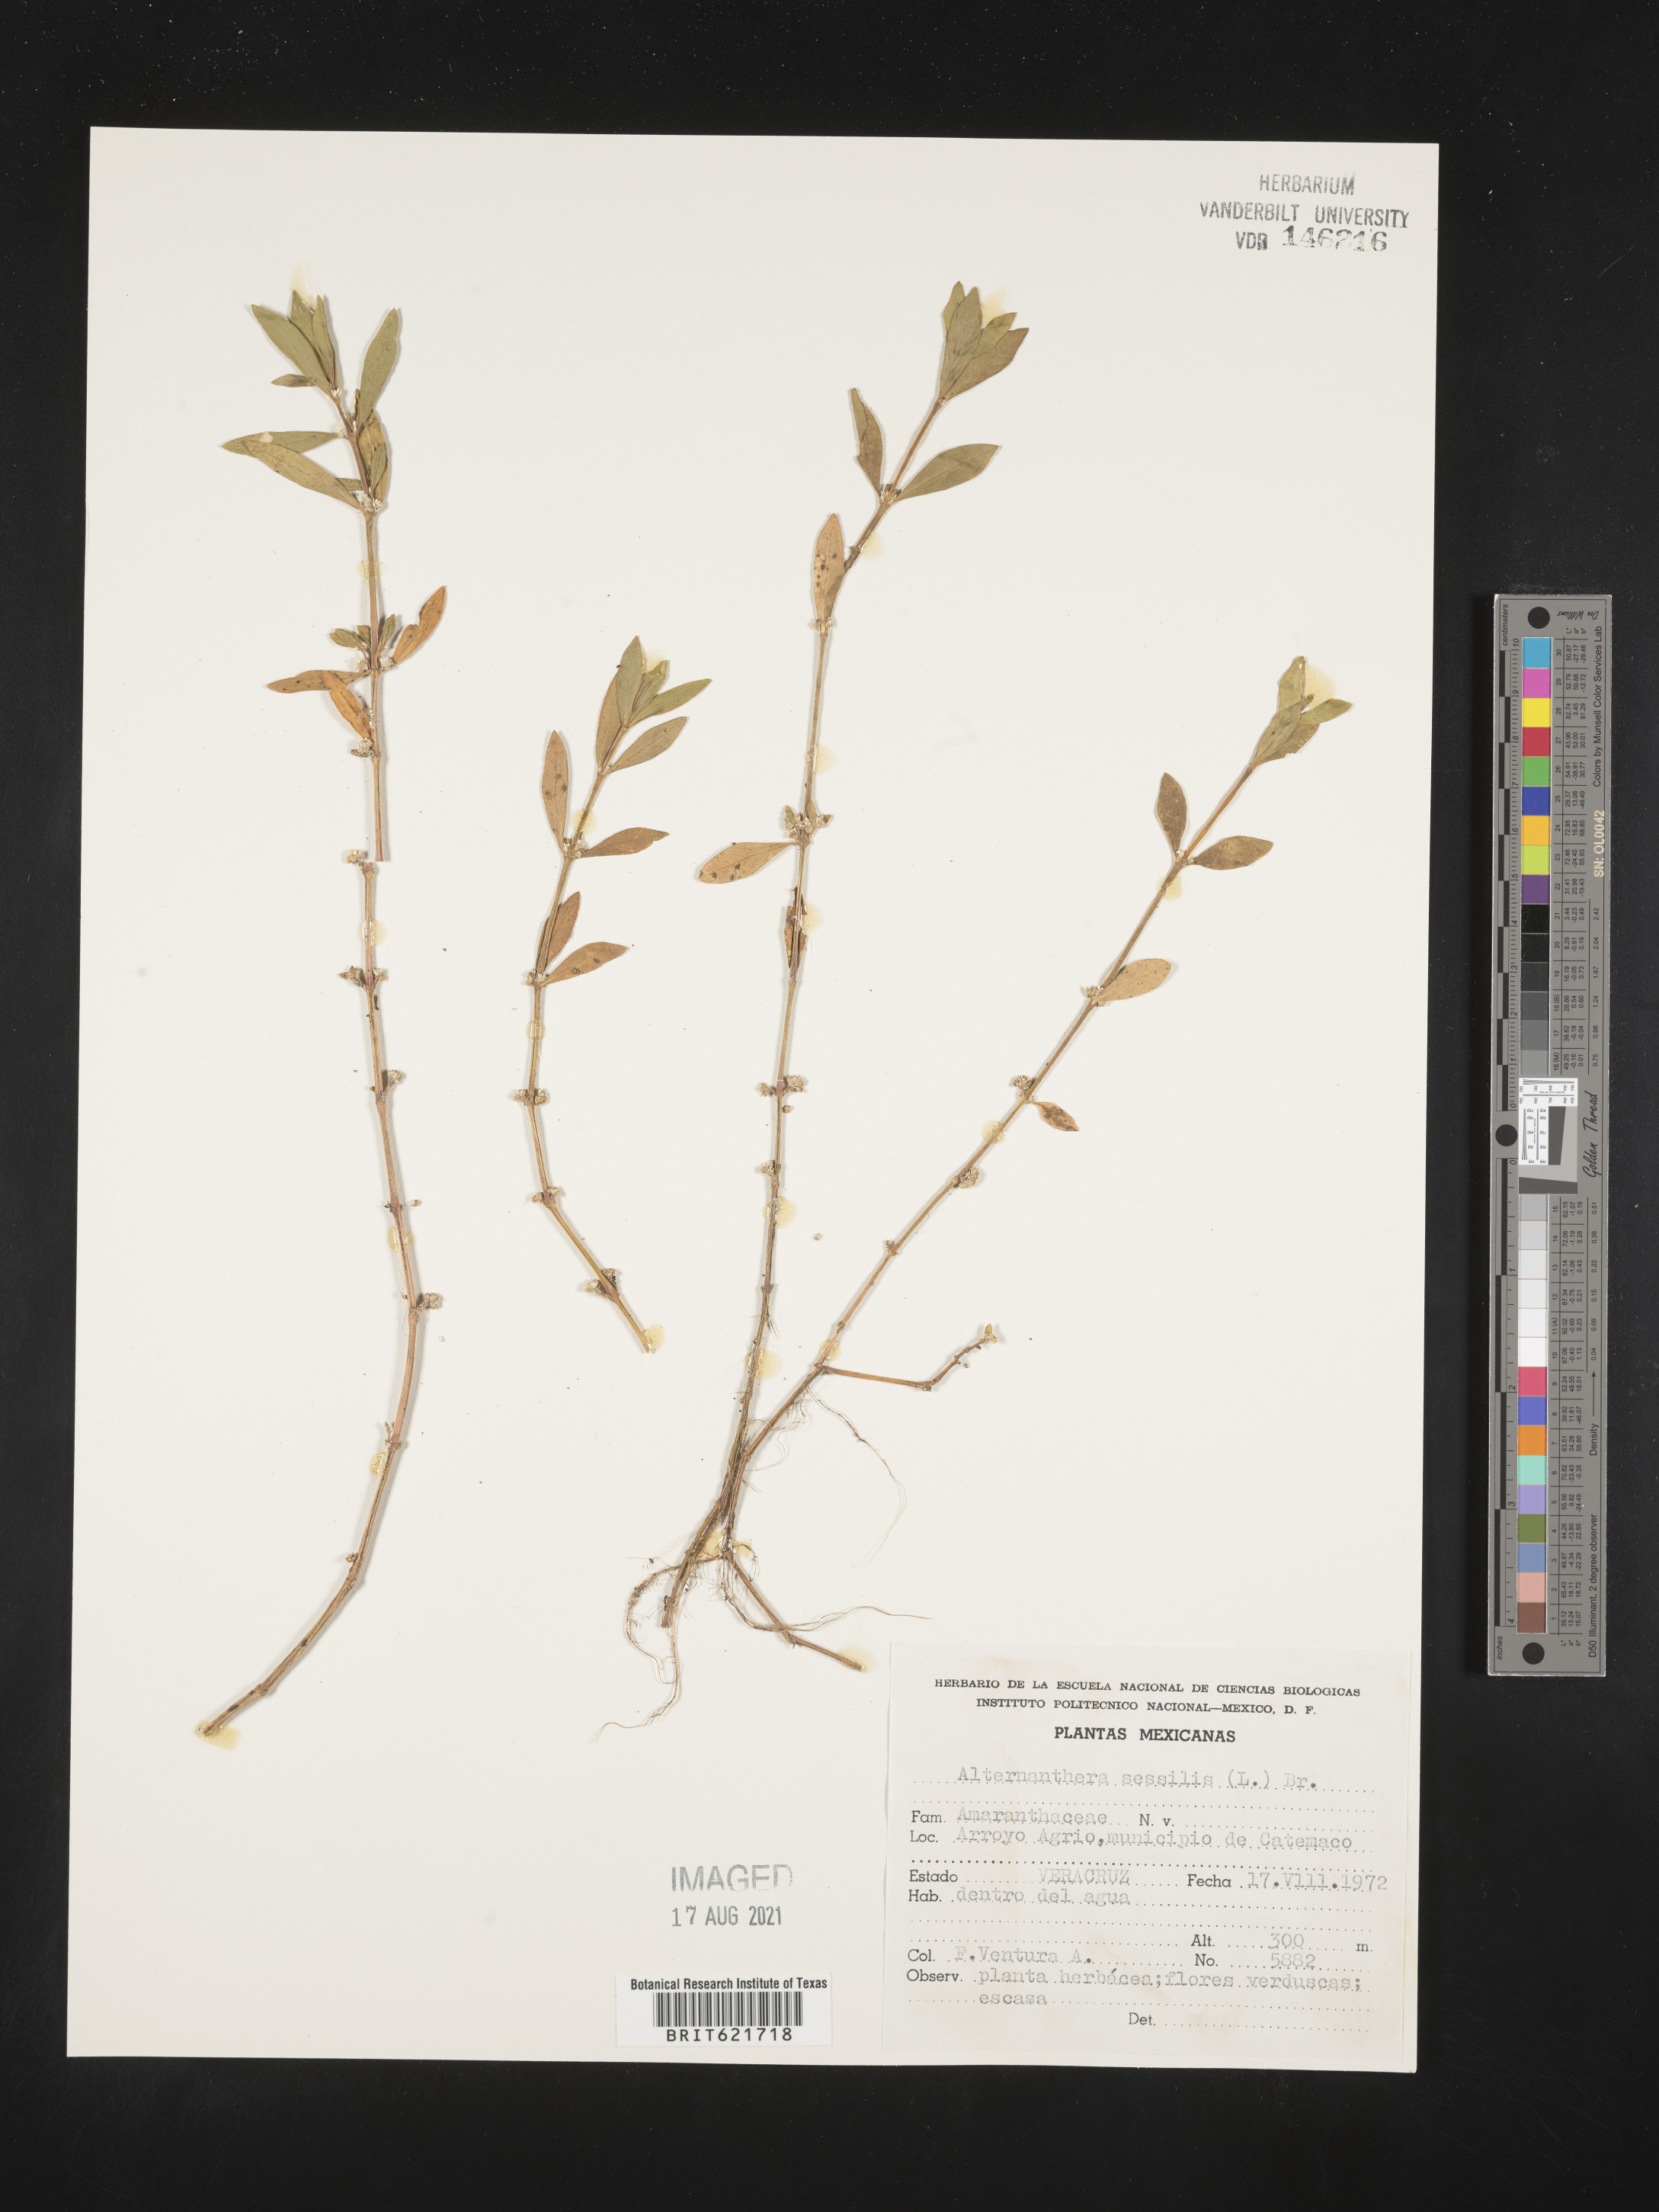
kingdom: Plantae
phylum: Tracheophyta
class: Magnoliopsida
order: Caryophyllales
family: Amaranthaceae
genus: Alternanthera
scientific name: Alternanthera
